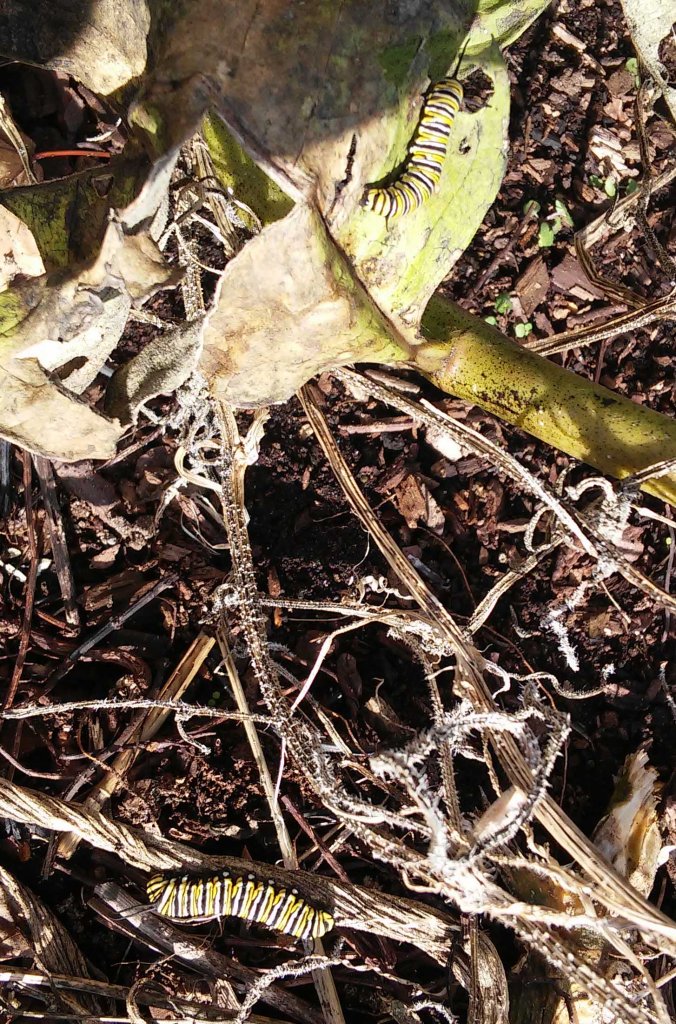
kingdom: Animalia
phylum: Arthropoda
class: Insecta
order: Lepidoptera
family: Nymphalidae
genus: Danaus
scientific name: Danaus plexippus
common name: Monarch
